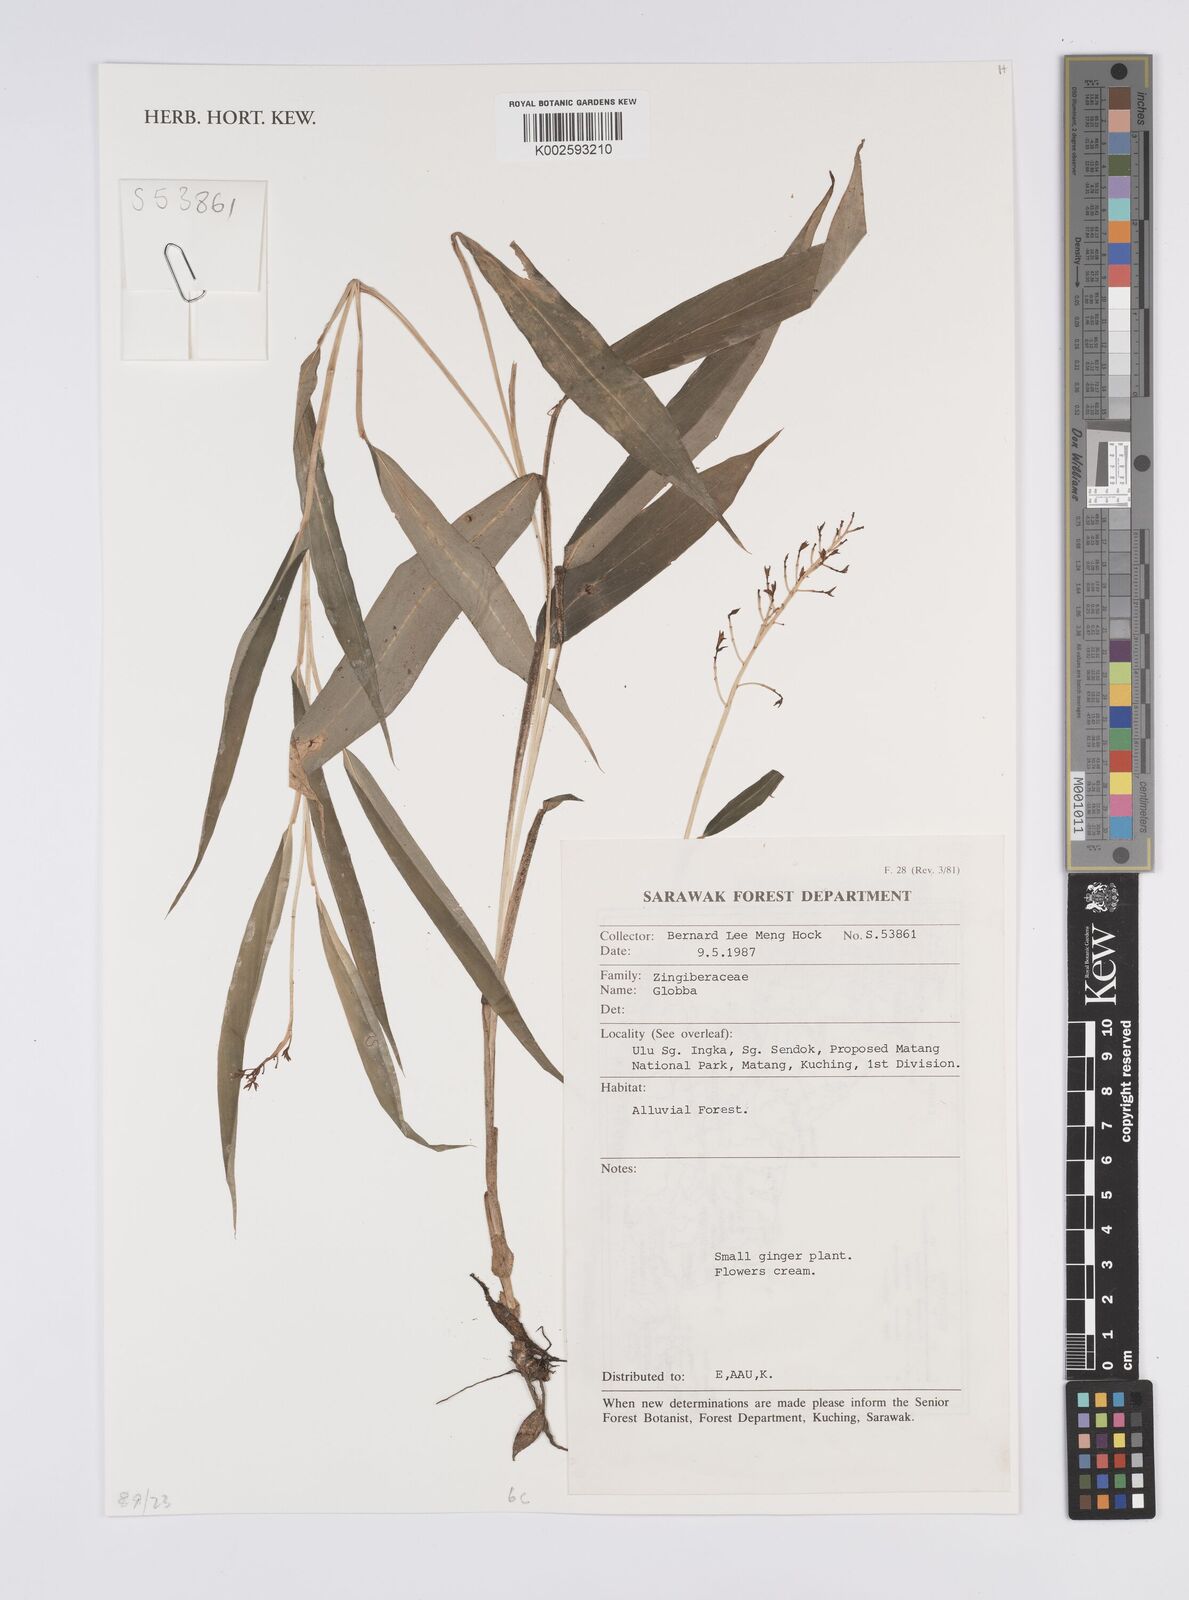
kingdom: Plantae
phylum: Tracheophyta
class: Liliopsida
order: Zingiberales
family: Zingiberaceae
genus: Globba
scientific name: Globba
